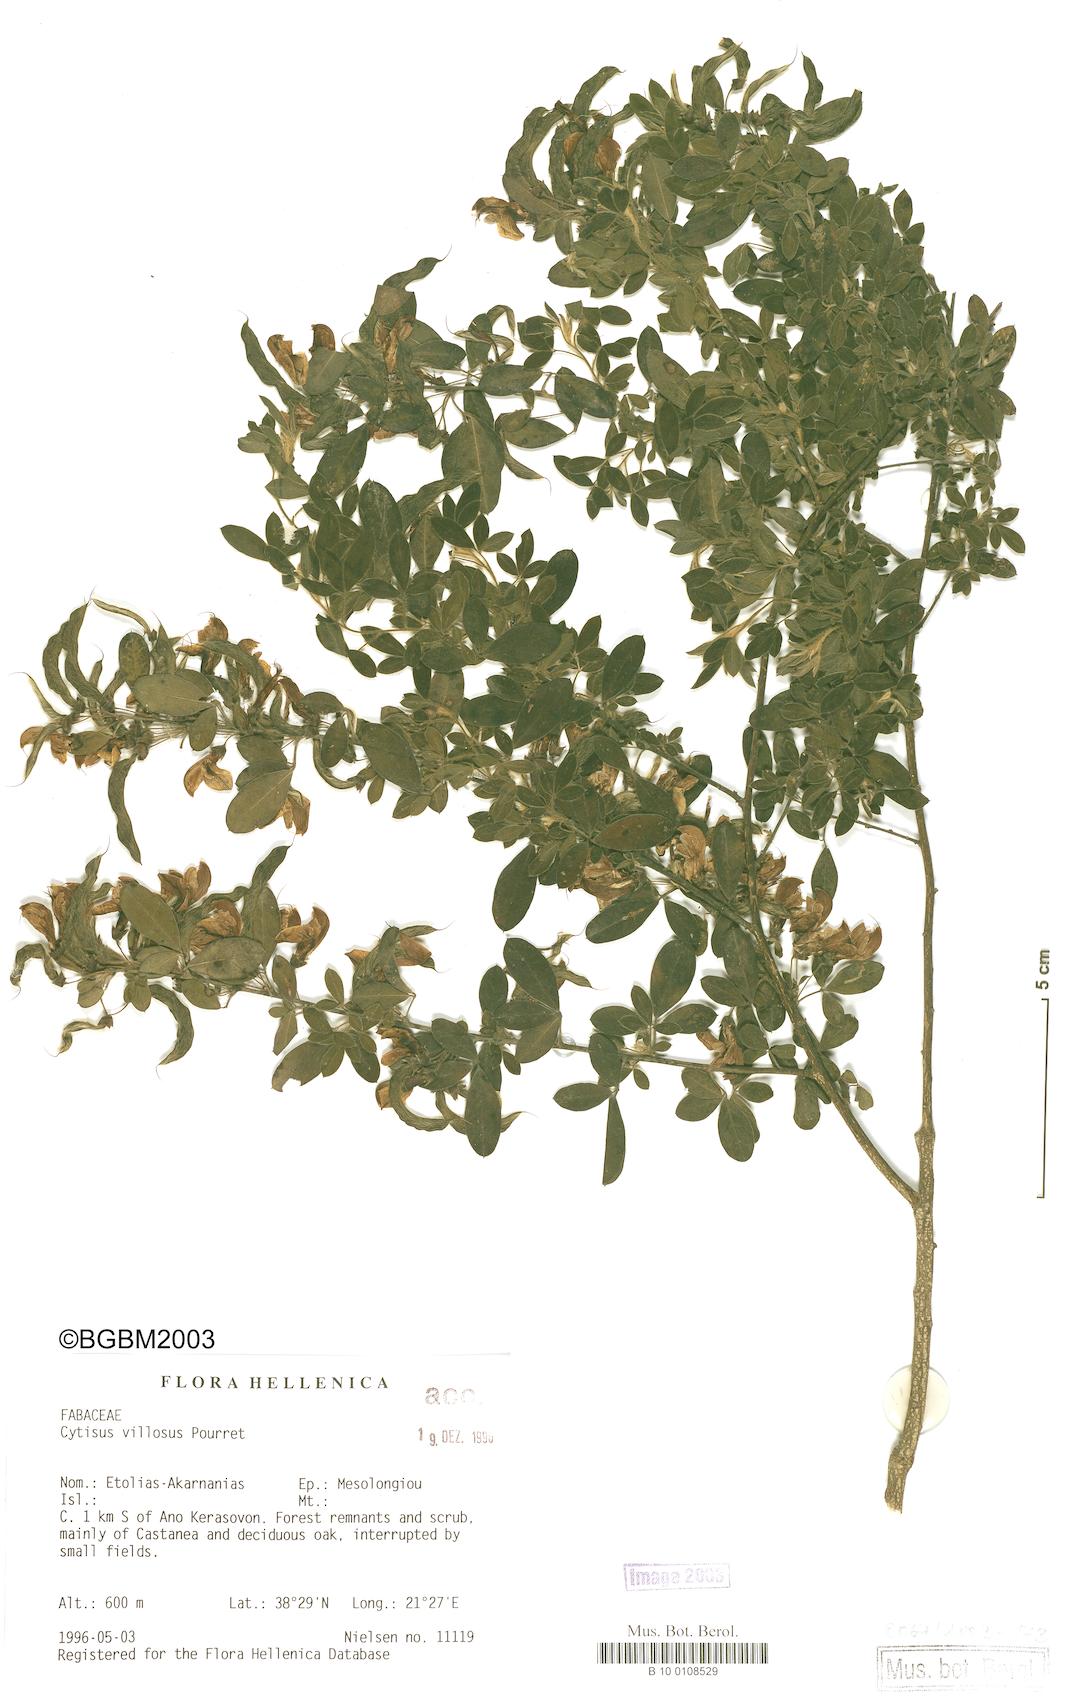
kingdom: Plantae
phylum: Tracheophyta
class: Magnoliopsida
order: Fabales
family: Fabaceae
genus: Cytisus
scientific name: Cytisus villosus
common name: Hairybroom
